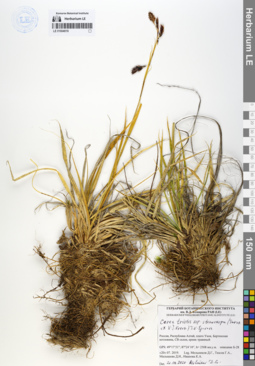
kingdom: Plantae
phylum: Tracheophyta
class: Liliopsida
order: Poales
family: Cyperaceae
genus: Carex
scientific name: Carex stenocarpa
